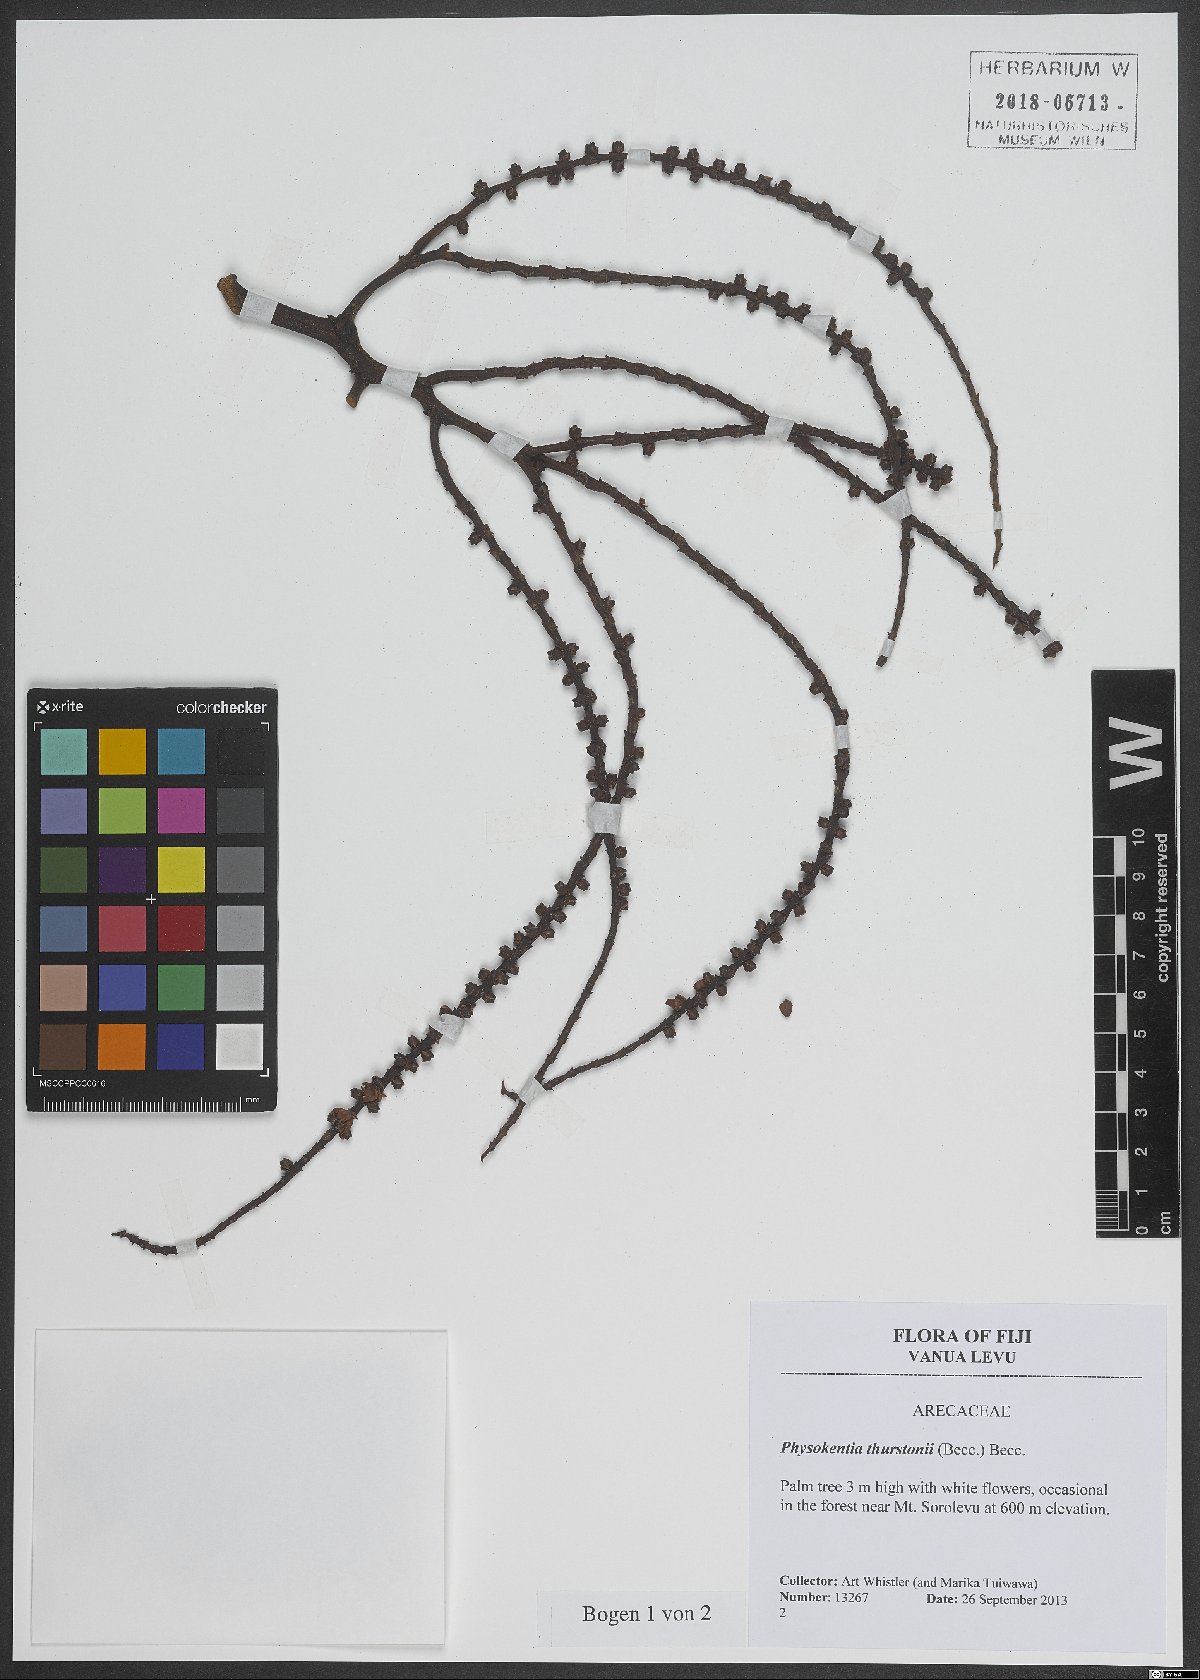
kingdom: Plantae
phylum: Tracheophyta
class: Liliopsida
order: Arecales
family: Arecaceae
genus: Physokentia
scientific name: Physokentia thurstonii
